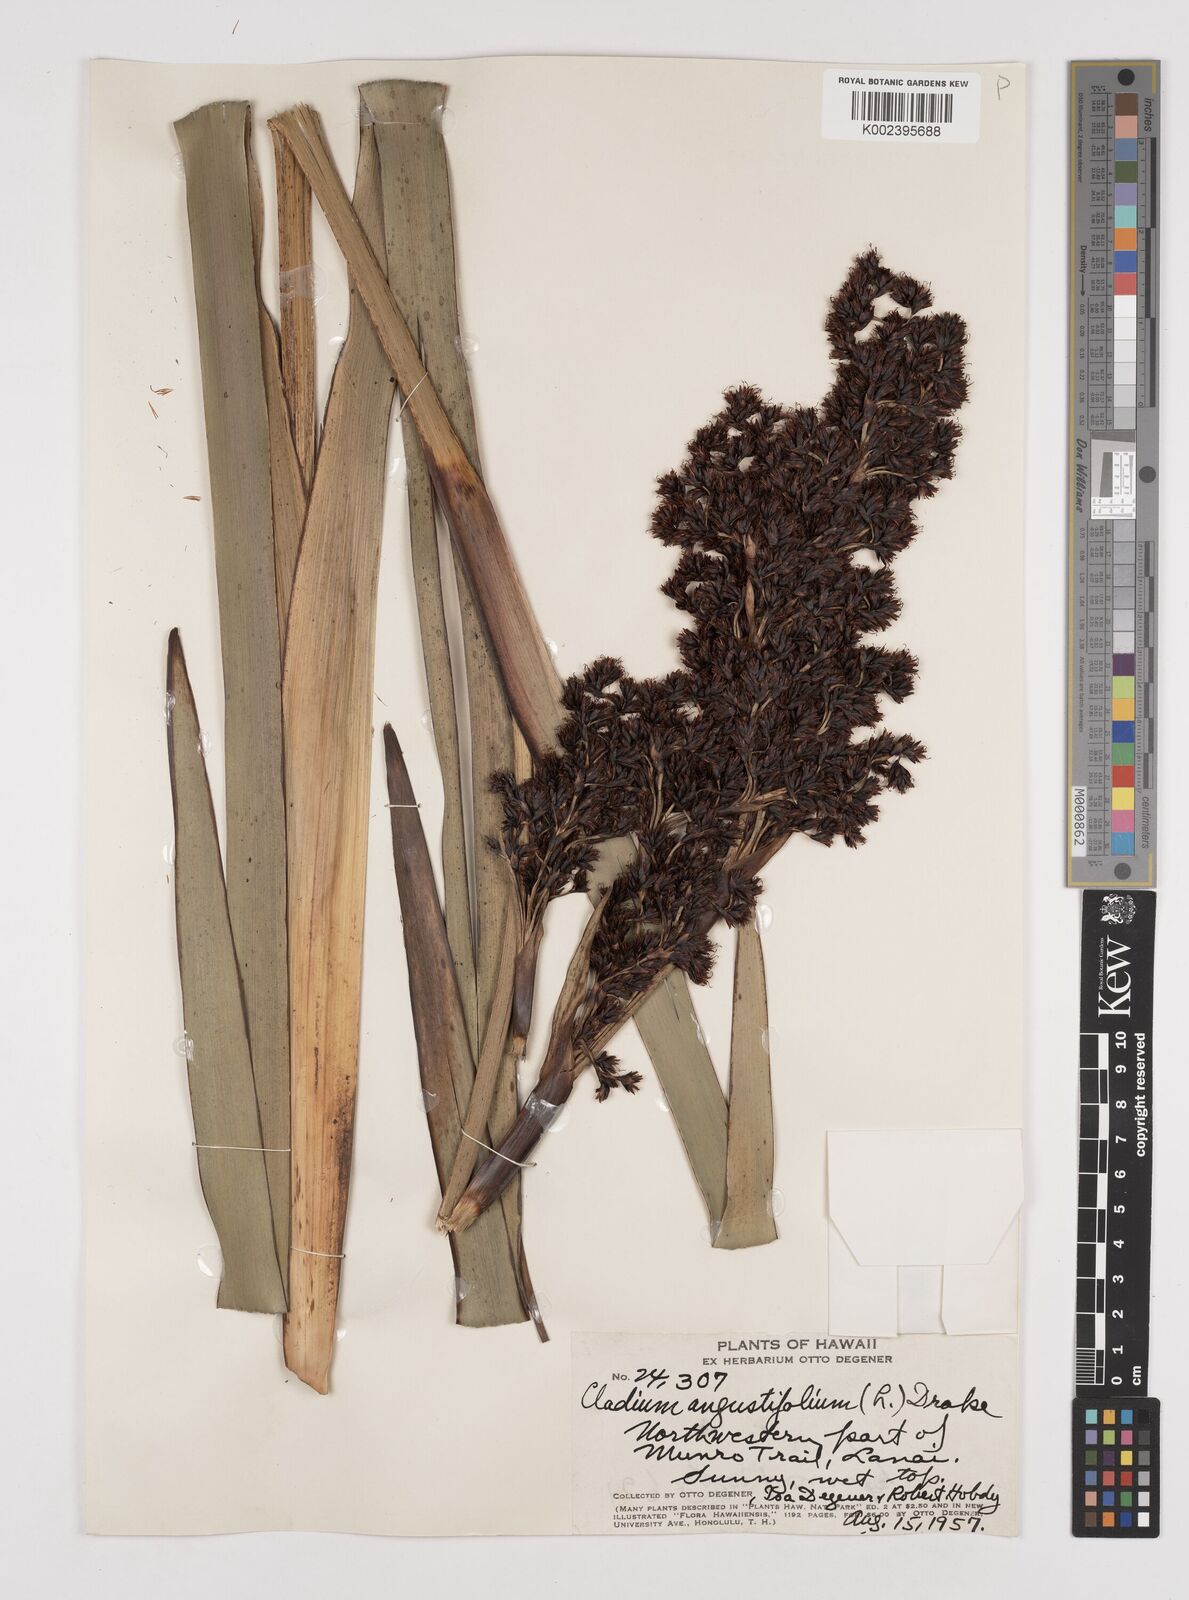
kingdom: Plantae
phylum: Tracheophyta
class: Liliopsida
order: Poales
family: Cyperaceae
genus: Machaerina
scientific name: Machaerina angustifolia
